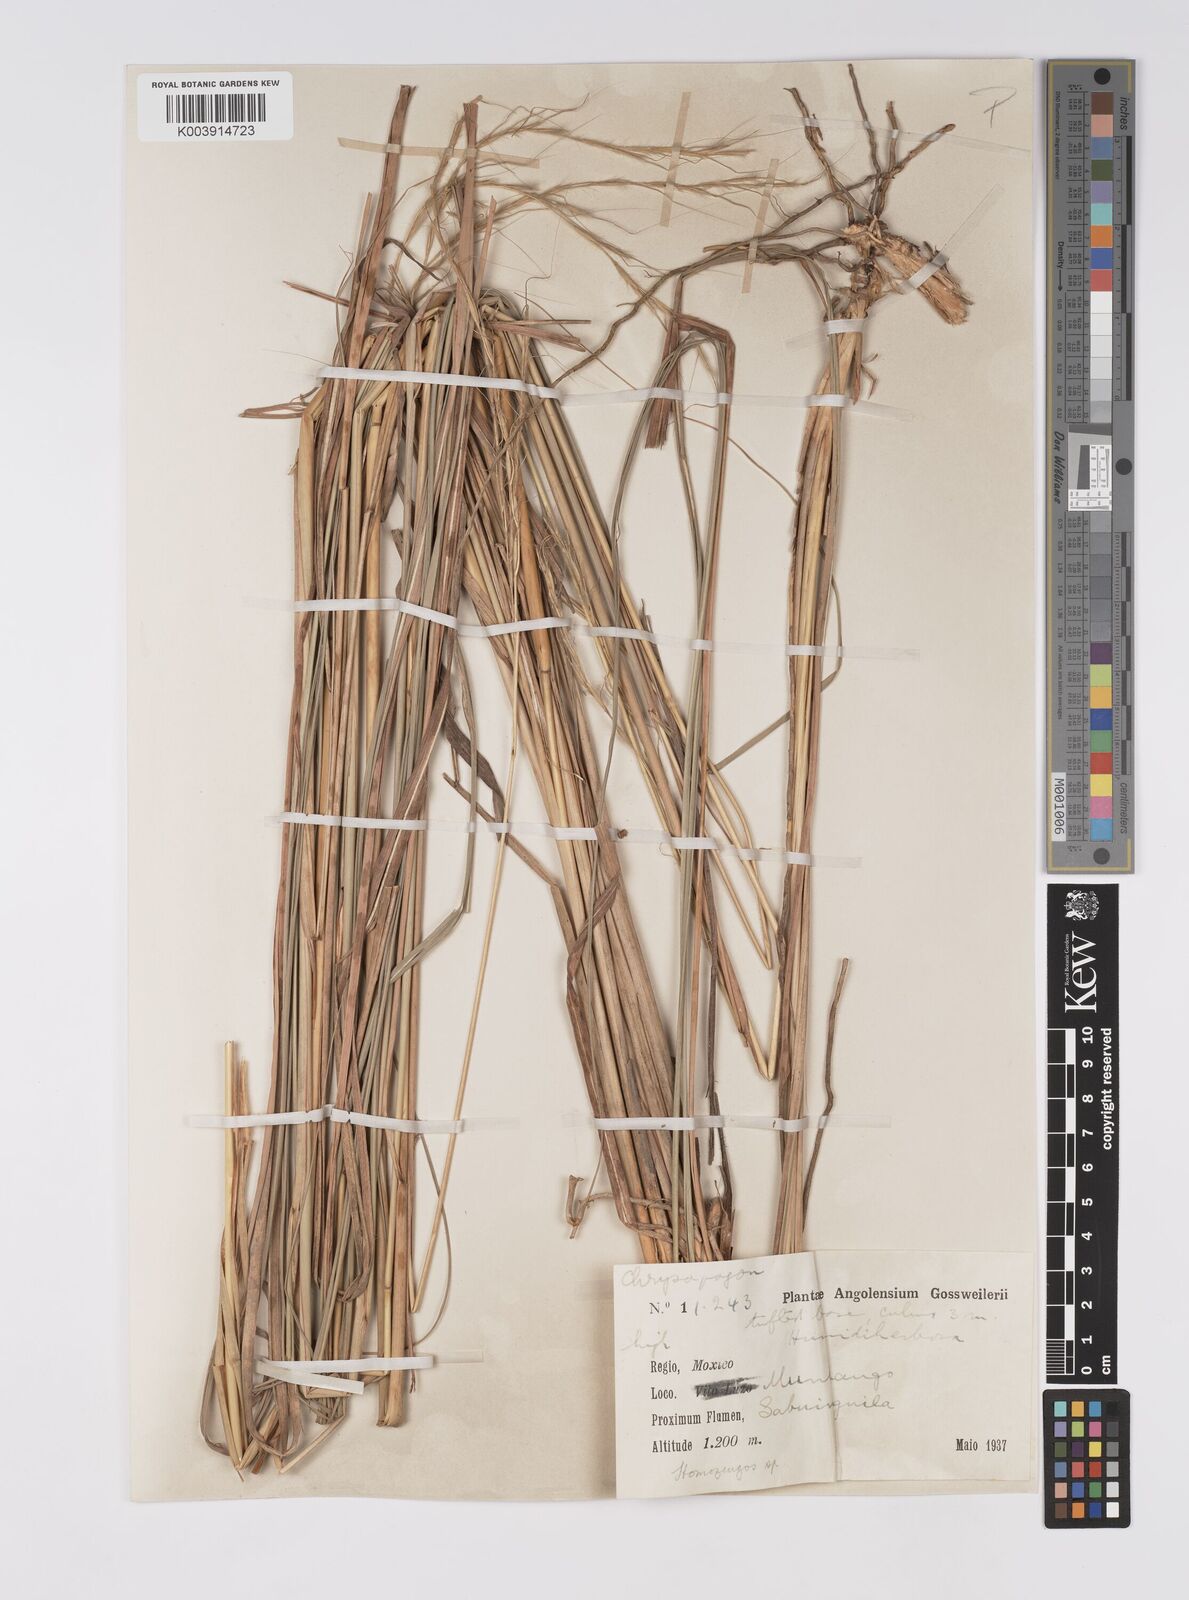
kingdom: Plantae
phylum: Tracheophyta
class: Liliopsida
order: Poales
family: Poaceae
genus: Homozeugos
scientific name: Homozeugos katakton
